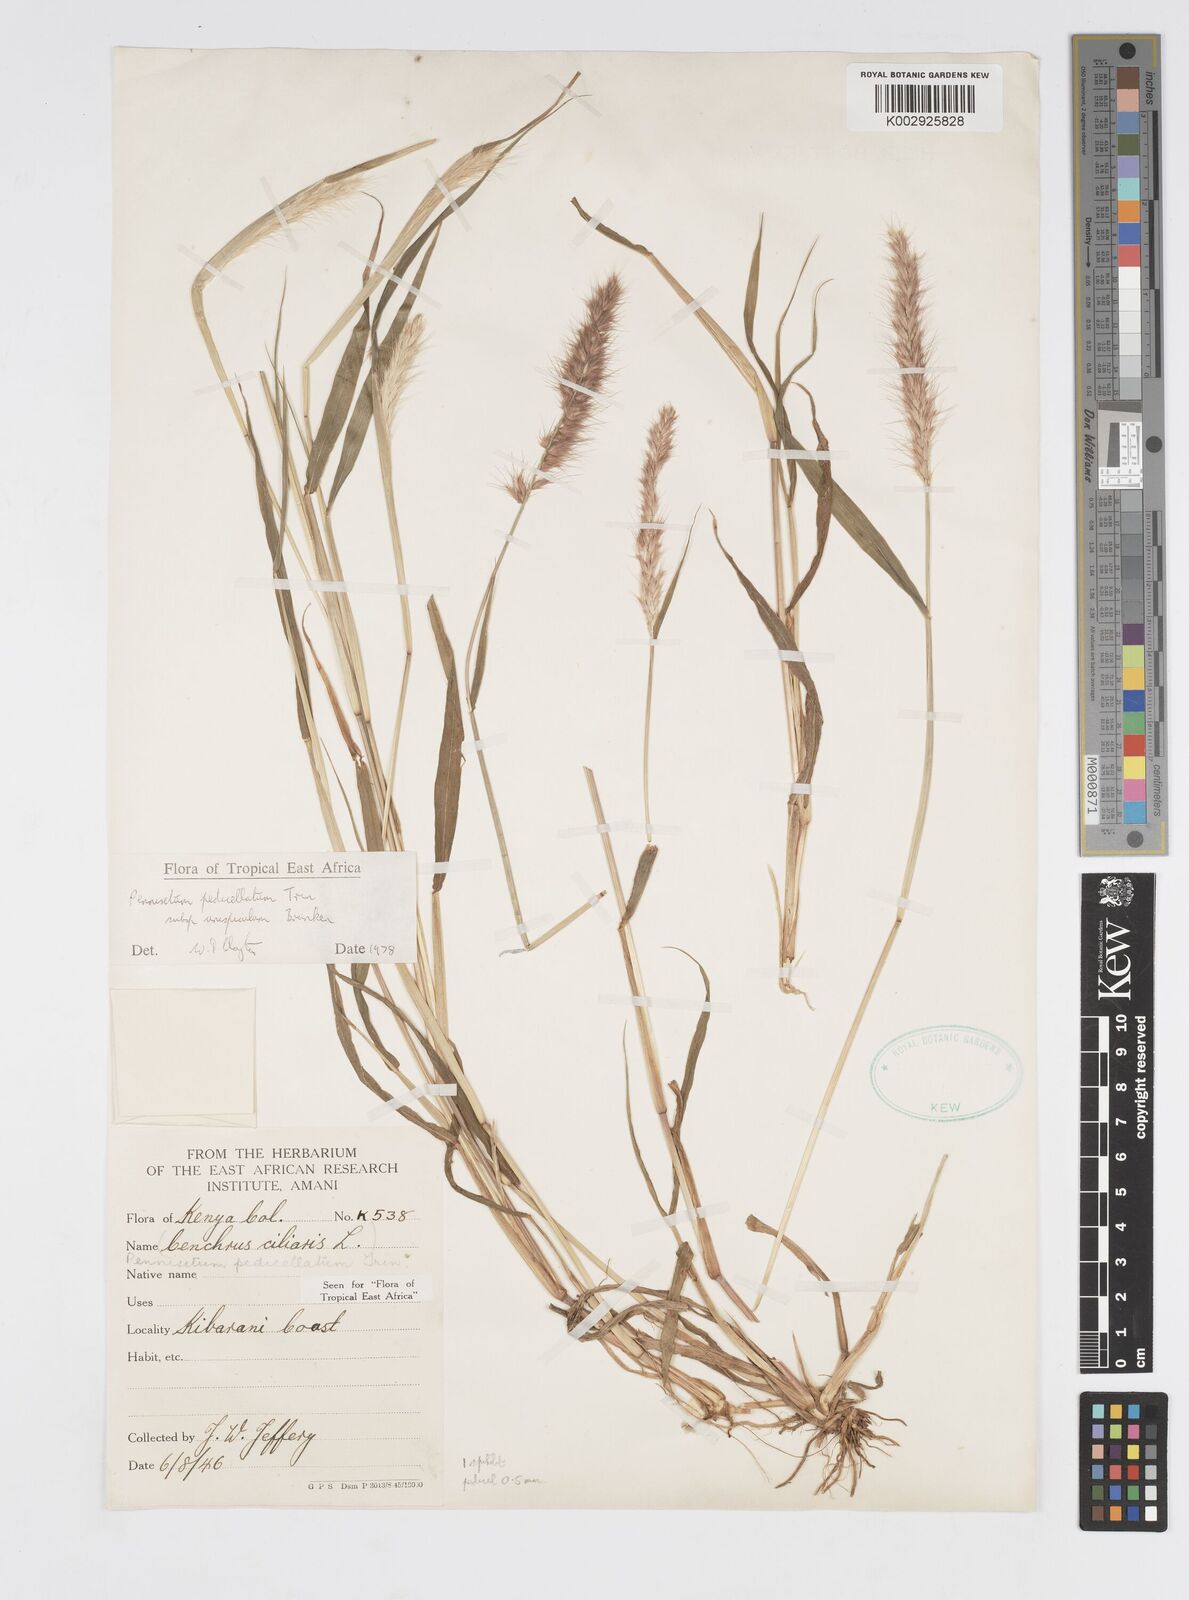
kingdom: Plantae
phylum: Tracheophyta
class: Liliopsida
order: Poales
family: Poaceae
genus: Cenchrus
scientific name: Cenchrus pedicellatus
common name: Hairy fountain grass
